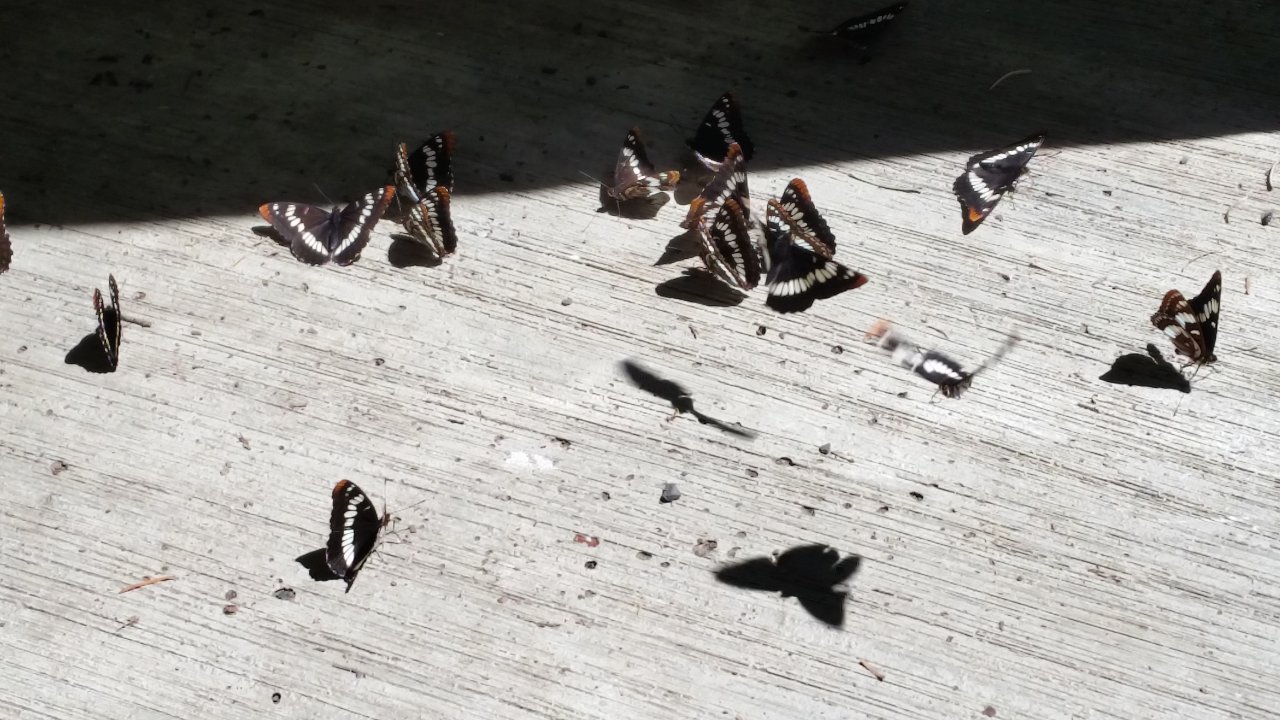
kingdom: Animalia
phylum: Arthropoda
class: Insecta
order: Lepidoptera
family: Nymphalidae
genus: Limenitis
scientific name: Limenitis lorquini
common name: Lorquin's Admiral
